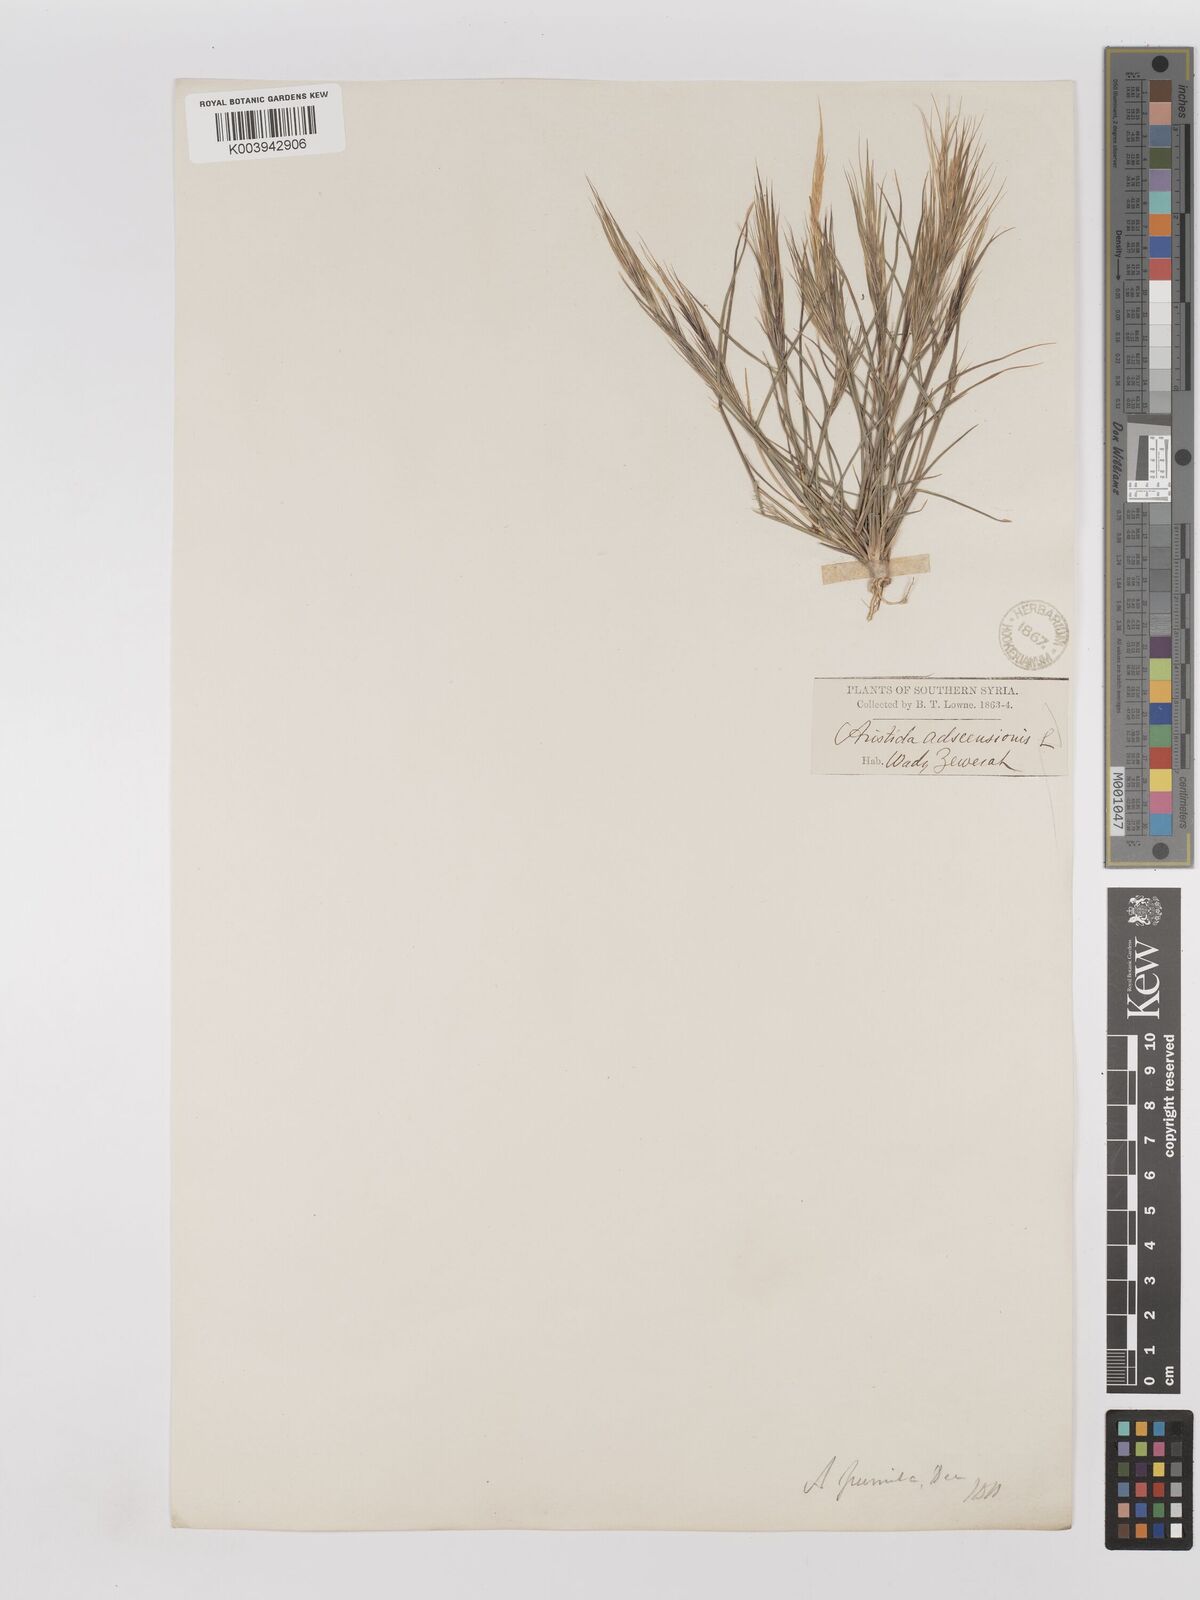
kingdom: Plantae
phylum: Tracheophyta
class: Liliopsida
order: Poales
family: Poaceae
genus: Aristida
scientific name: Aristida adscensionis
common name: Sixweeks threeawn
